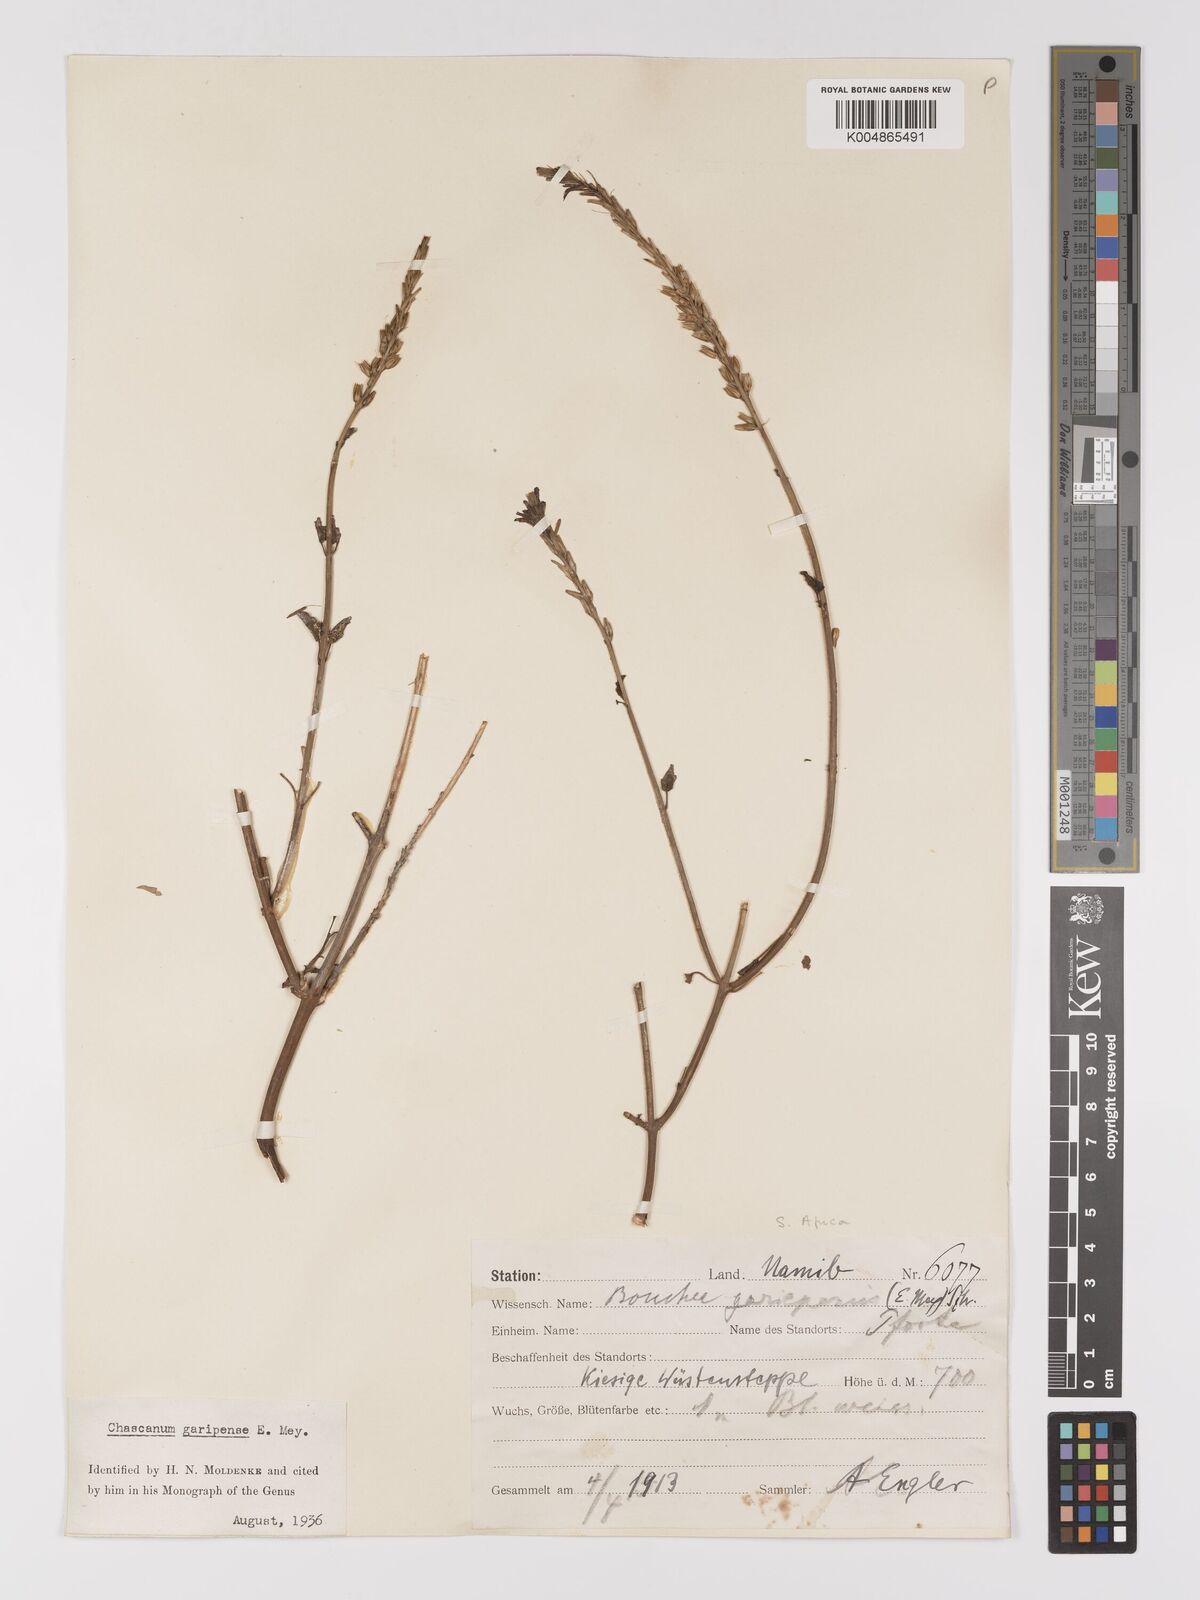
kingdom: Plantae
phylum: Tracheophyta
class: Magnoliopsida
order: Lamiales
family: Verbenaceae
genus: Chascanum
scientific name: Chascanum garipense
